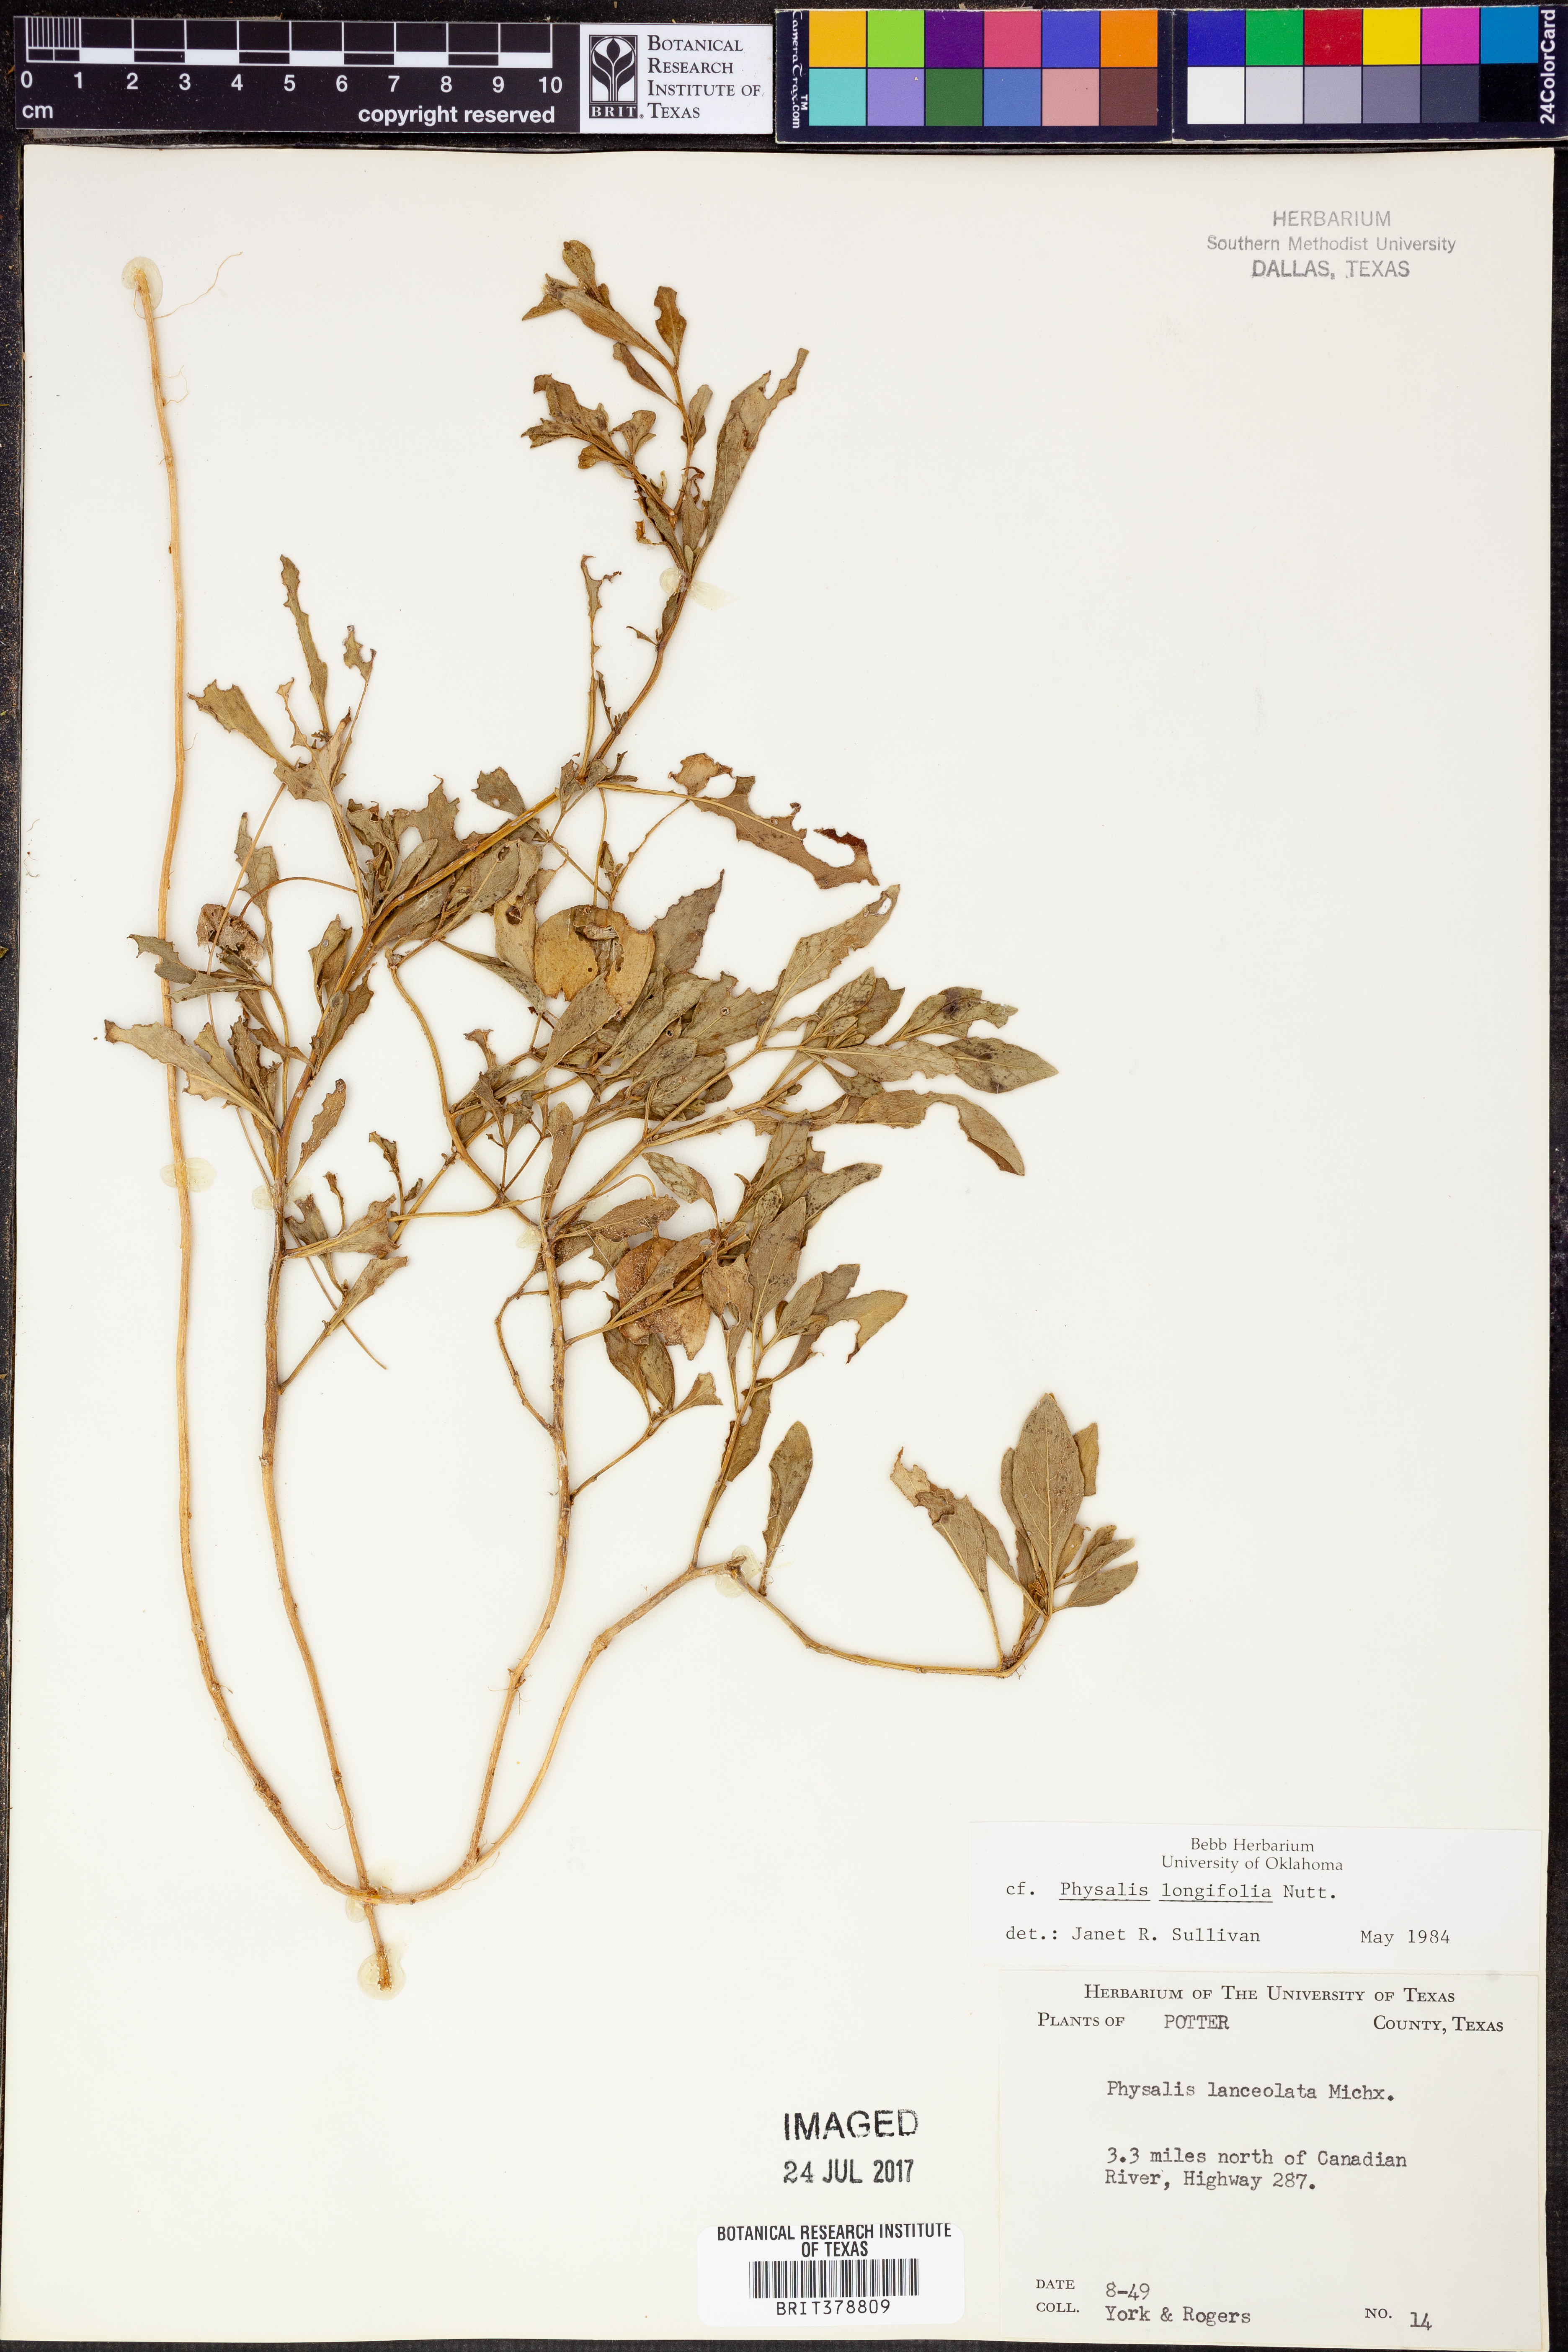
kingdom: Plantae
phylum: Tracheophyta
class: Magnoliopsida
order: Solanales
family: Solanaceae
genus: Physalis
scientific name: Physalis longifolia
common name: Common ground-cherry
